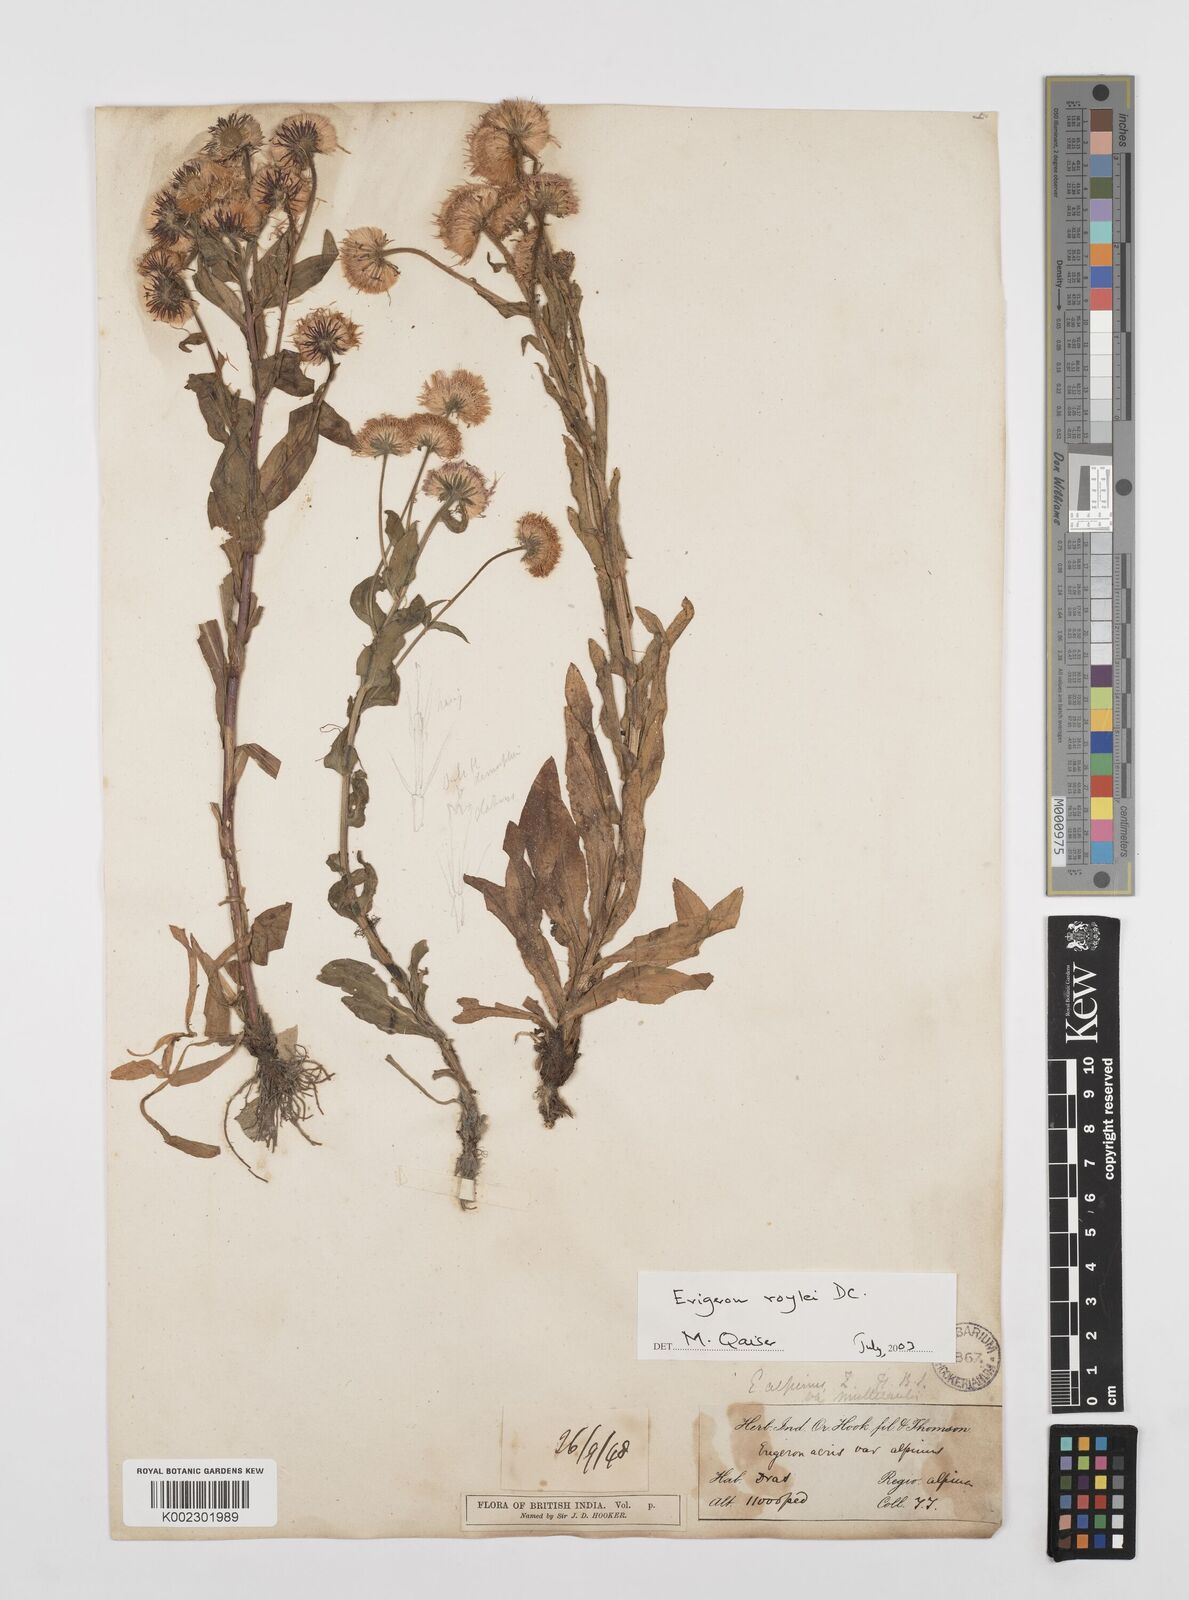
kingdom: Plantae
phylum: Tracheophyta
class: Magnoliopsida
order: Asterales
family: Asteraceae
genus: Erigeron
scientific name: Erigeron alpinus
